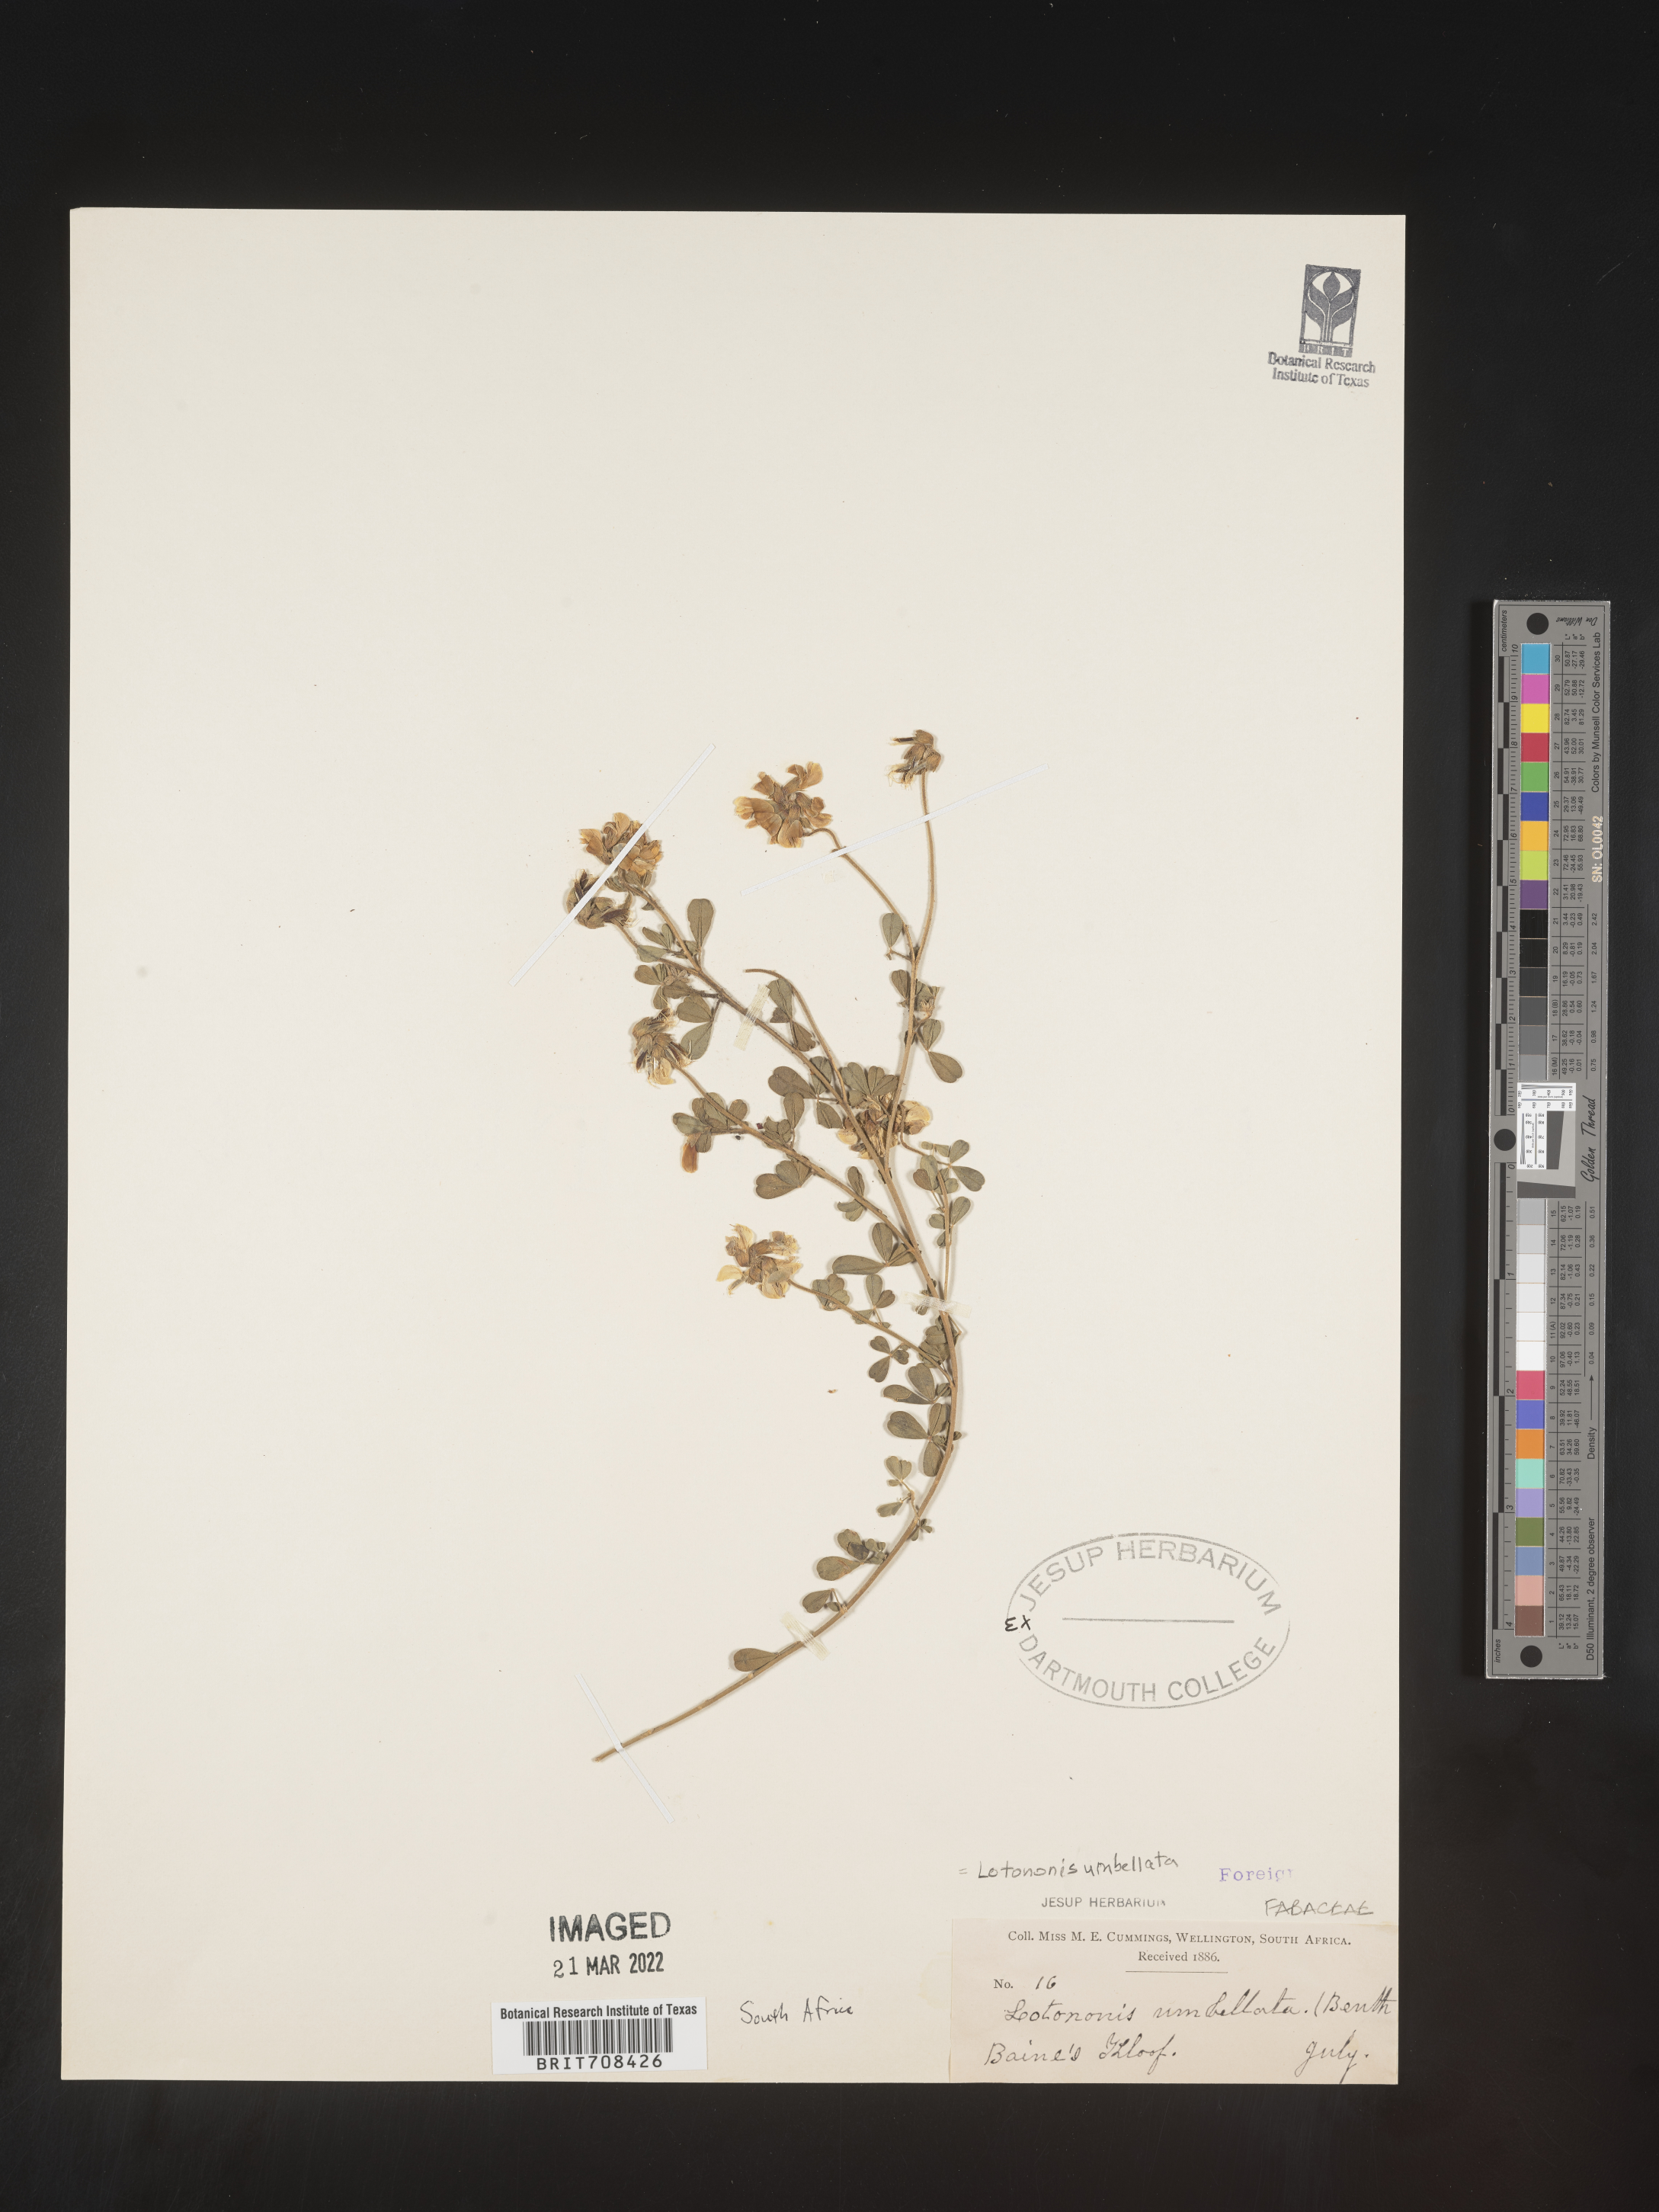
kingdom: Plantae
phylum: Tracheophyta
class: Magnoliopsida
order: Fabales
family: Fabaceae
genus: Lotononis
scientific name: Lotononis
